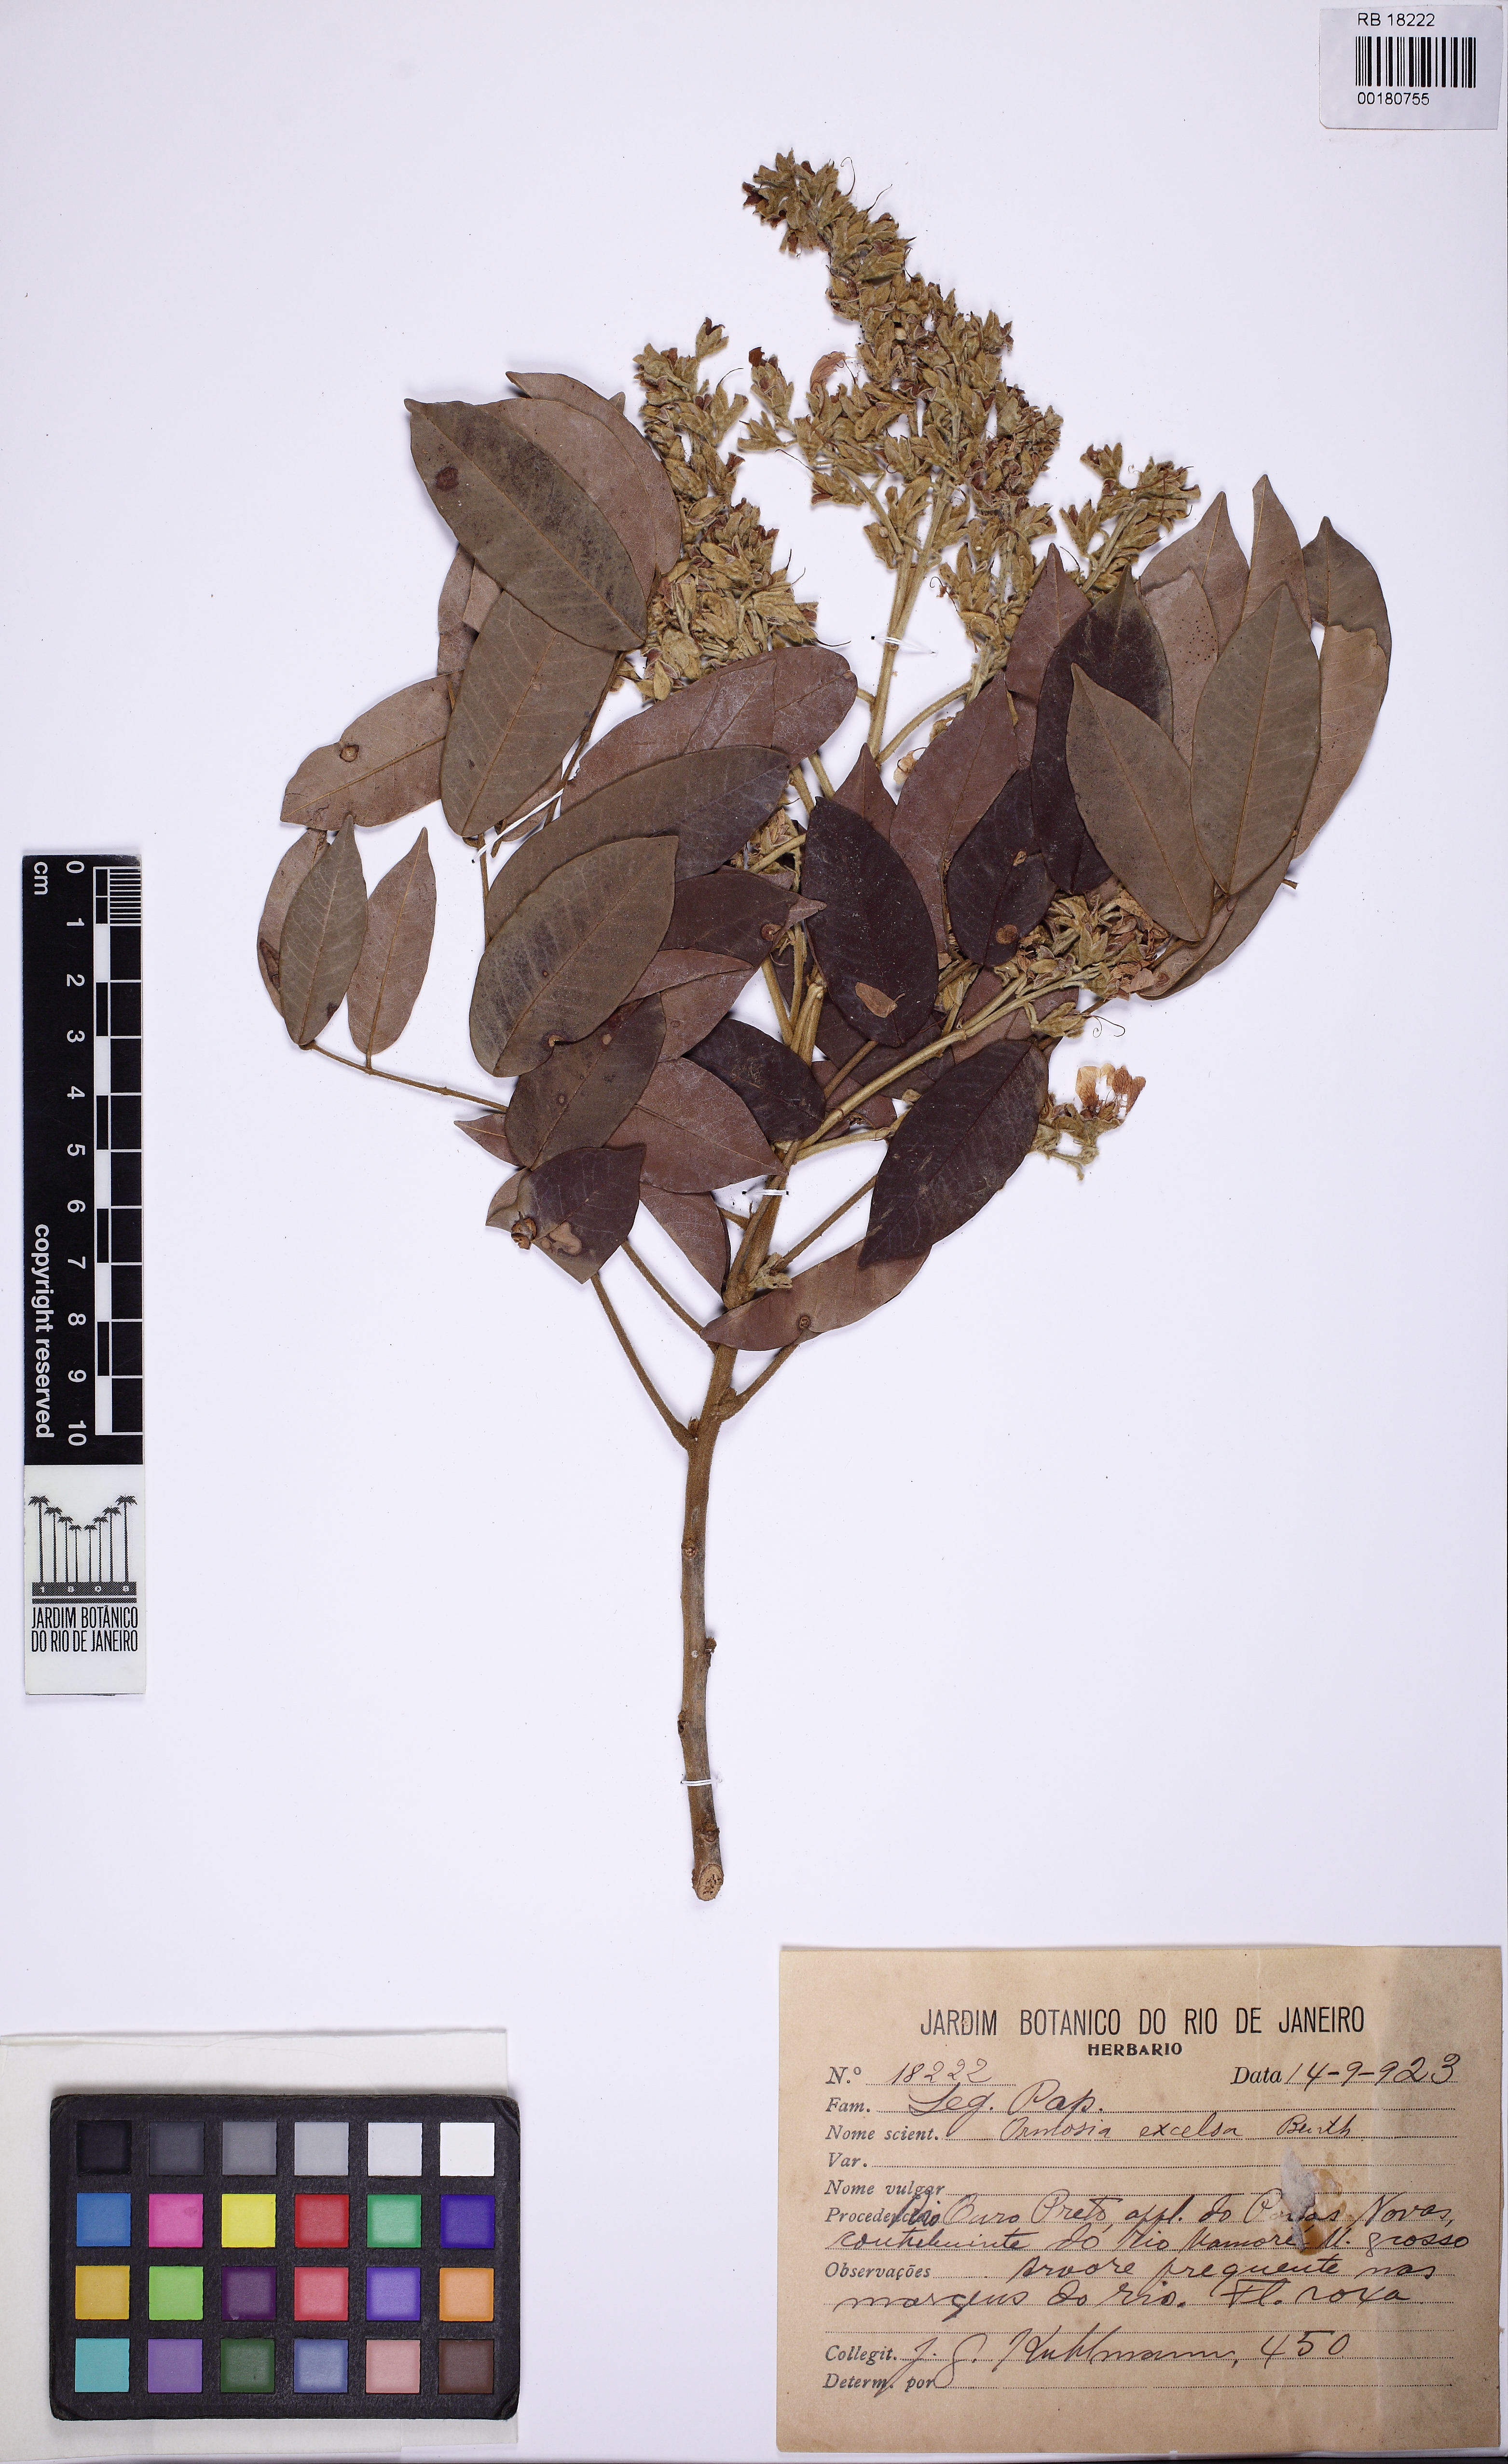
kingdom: Plantae
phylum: Tracheophyta
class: Magnoliopsida
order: Fabales
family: Fabaceae
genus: Ormosia
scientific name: Ormosia excelsa
